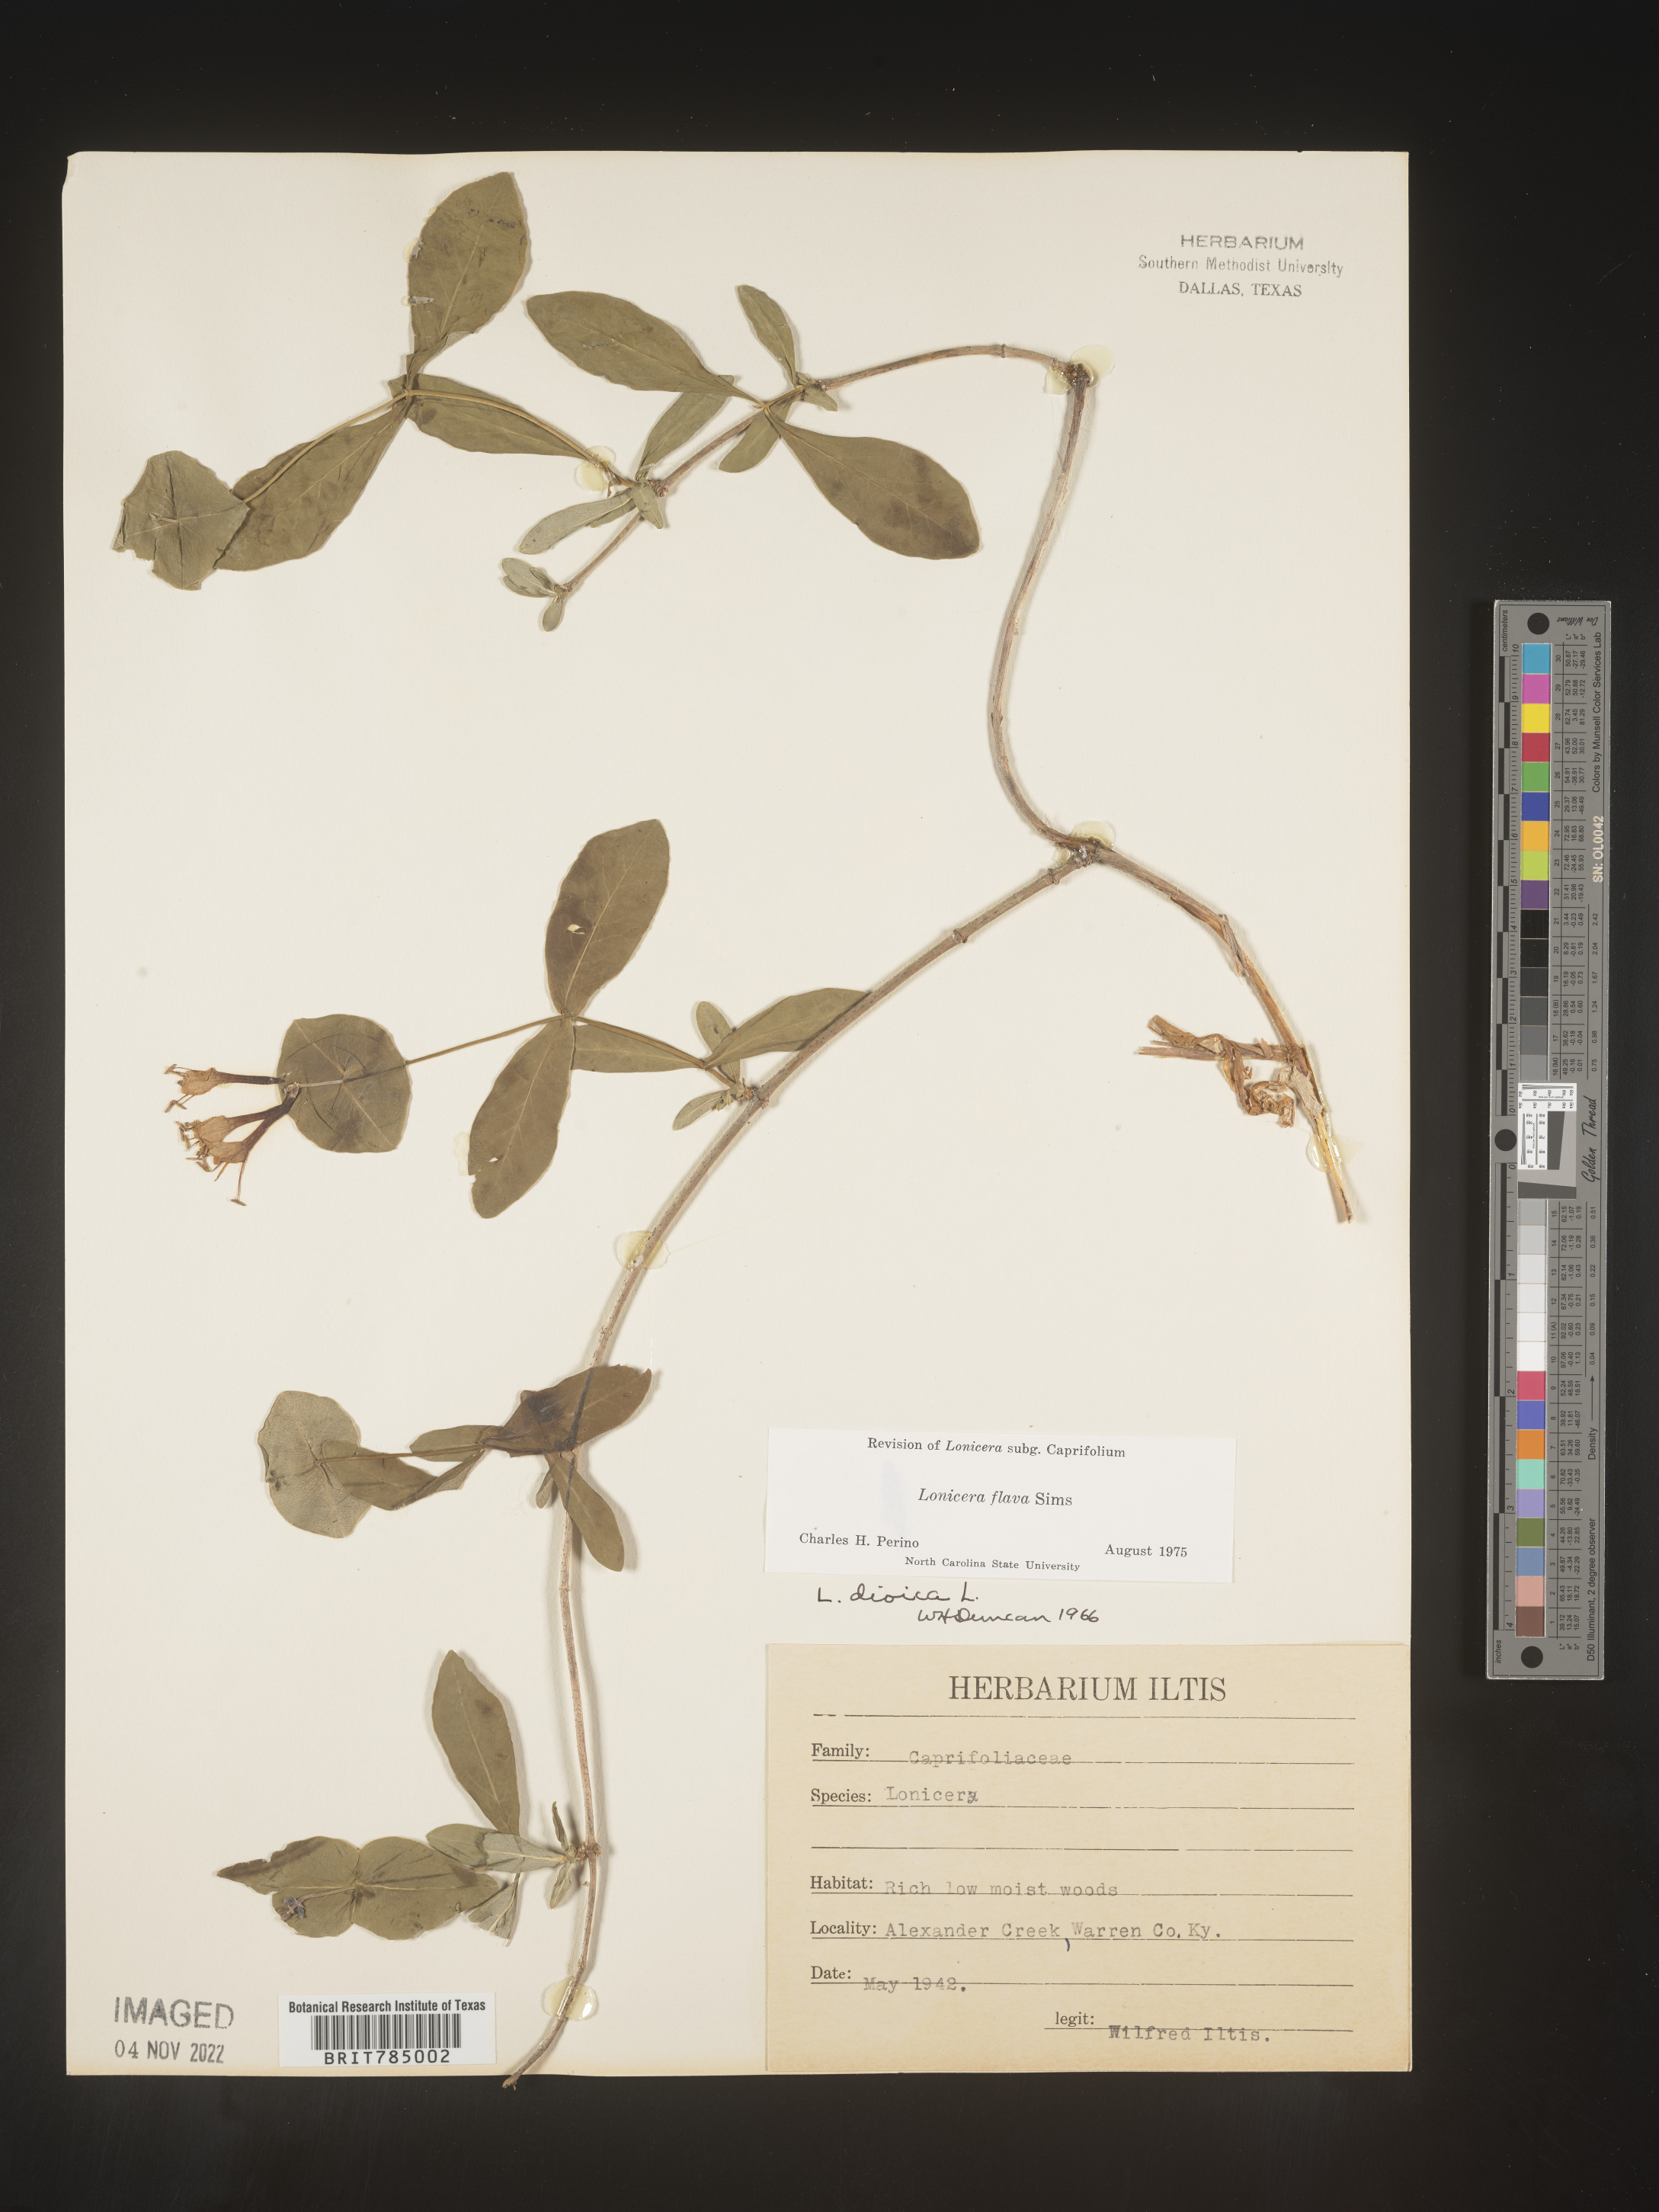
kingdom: Plantae
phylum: Tracheophyta
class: Magnoliopsida
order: Dipsacales
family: Caprifoliaceae
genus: Lonicera
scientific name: Lonicera flava
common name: Yellow honeysuckle
